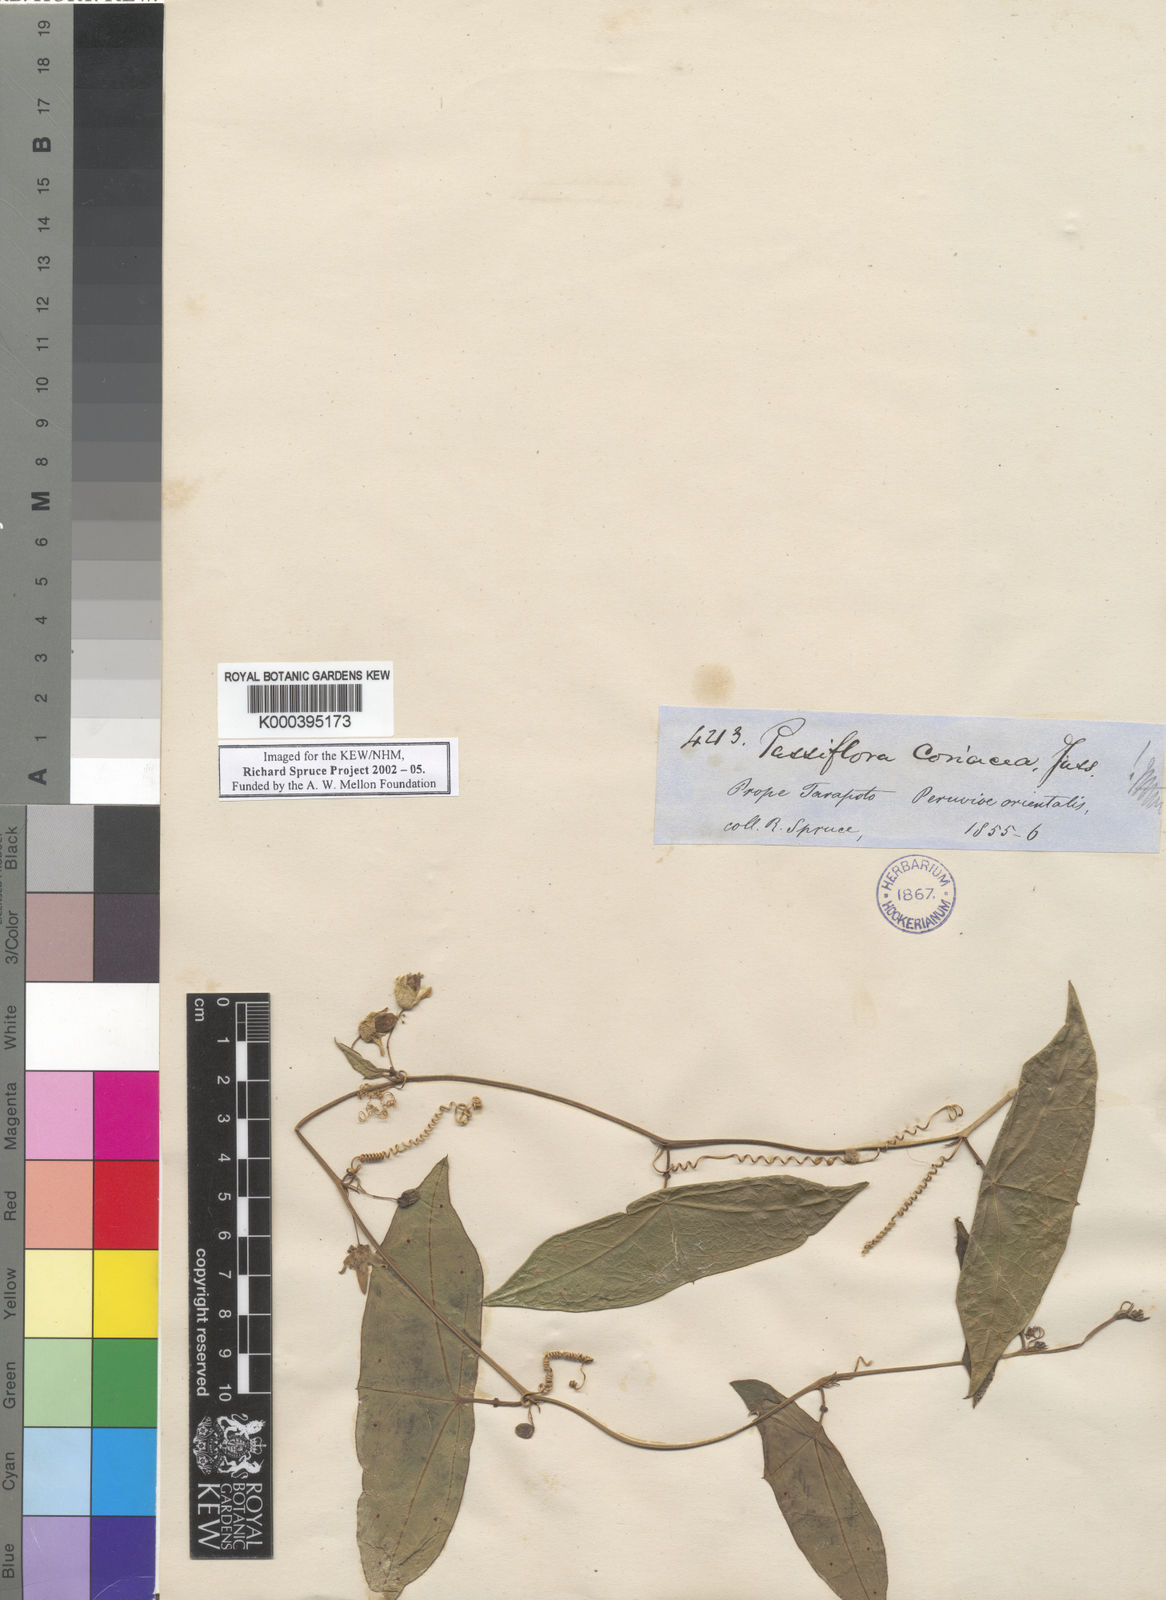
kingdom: Plantae
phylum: Tracheophyta
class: Magnoliopsida
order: Malpighiales
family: Passifloraceae
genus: Passiflora
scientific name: Passiflora coriacea
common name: Bat-leaf passionflower
